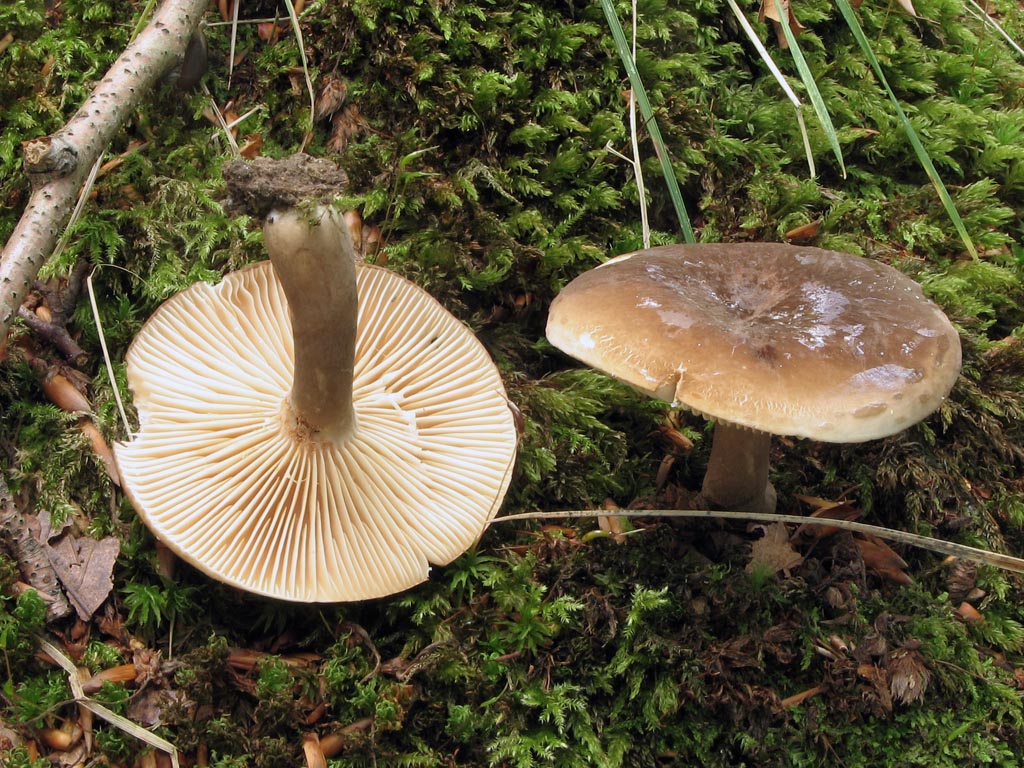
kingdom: Fungi
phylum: Basidiomycota
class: Agaricomycetes
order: Russulales
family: Russulaceae
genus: Lactarius
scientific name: Lactarius romagnesii
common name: fjernbladet mælkehat
